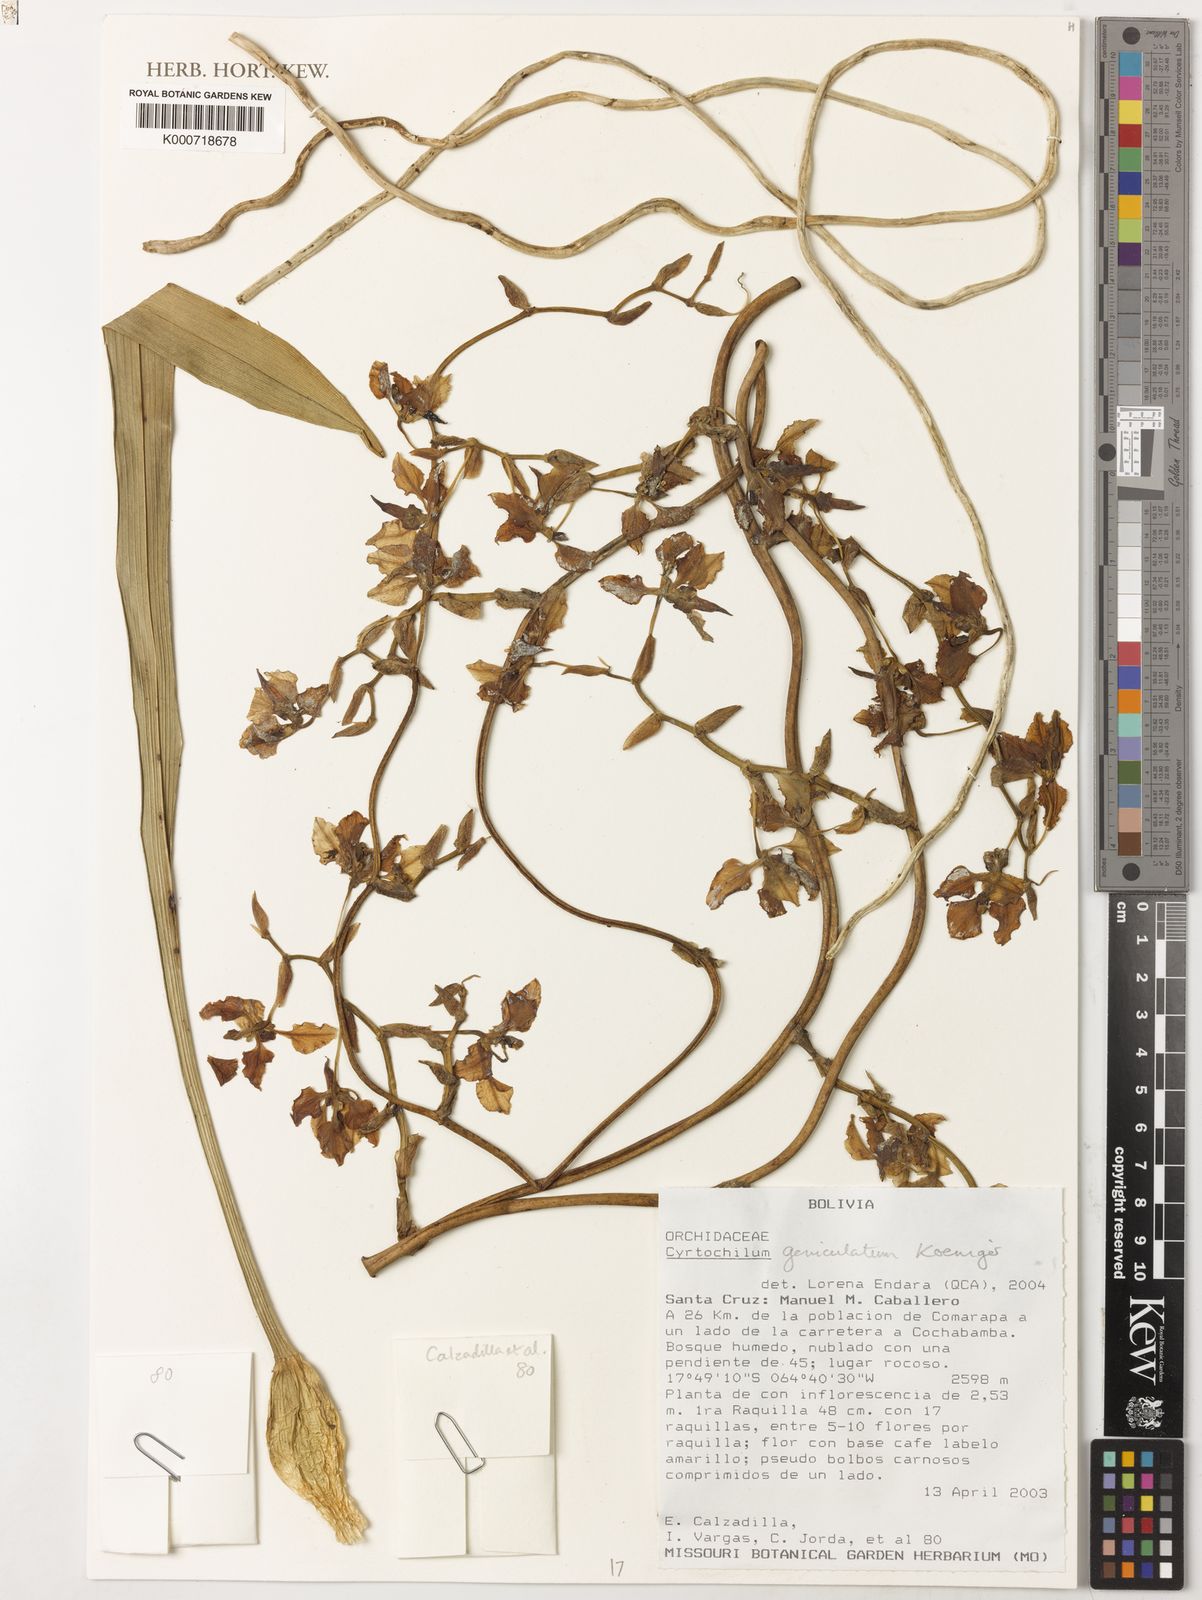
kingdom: Plantae
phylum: Tracheophyta
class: Liliopsida
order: Asparagales
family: Orchidaceae
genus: Cyrtochilum
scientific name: Cyrtochilum
